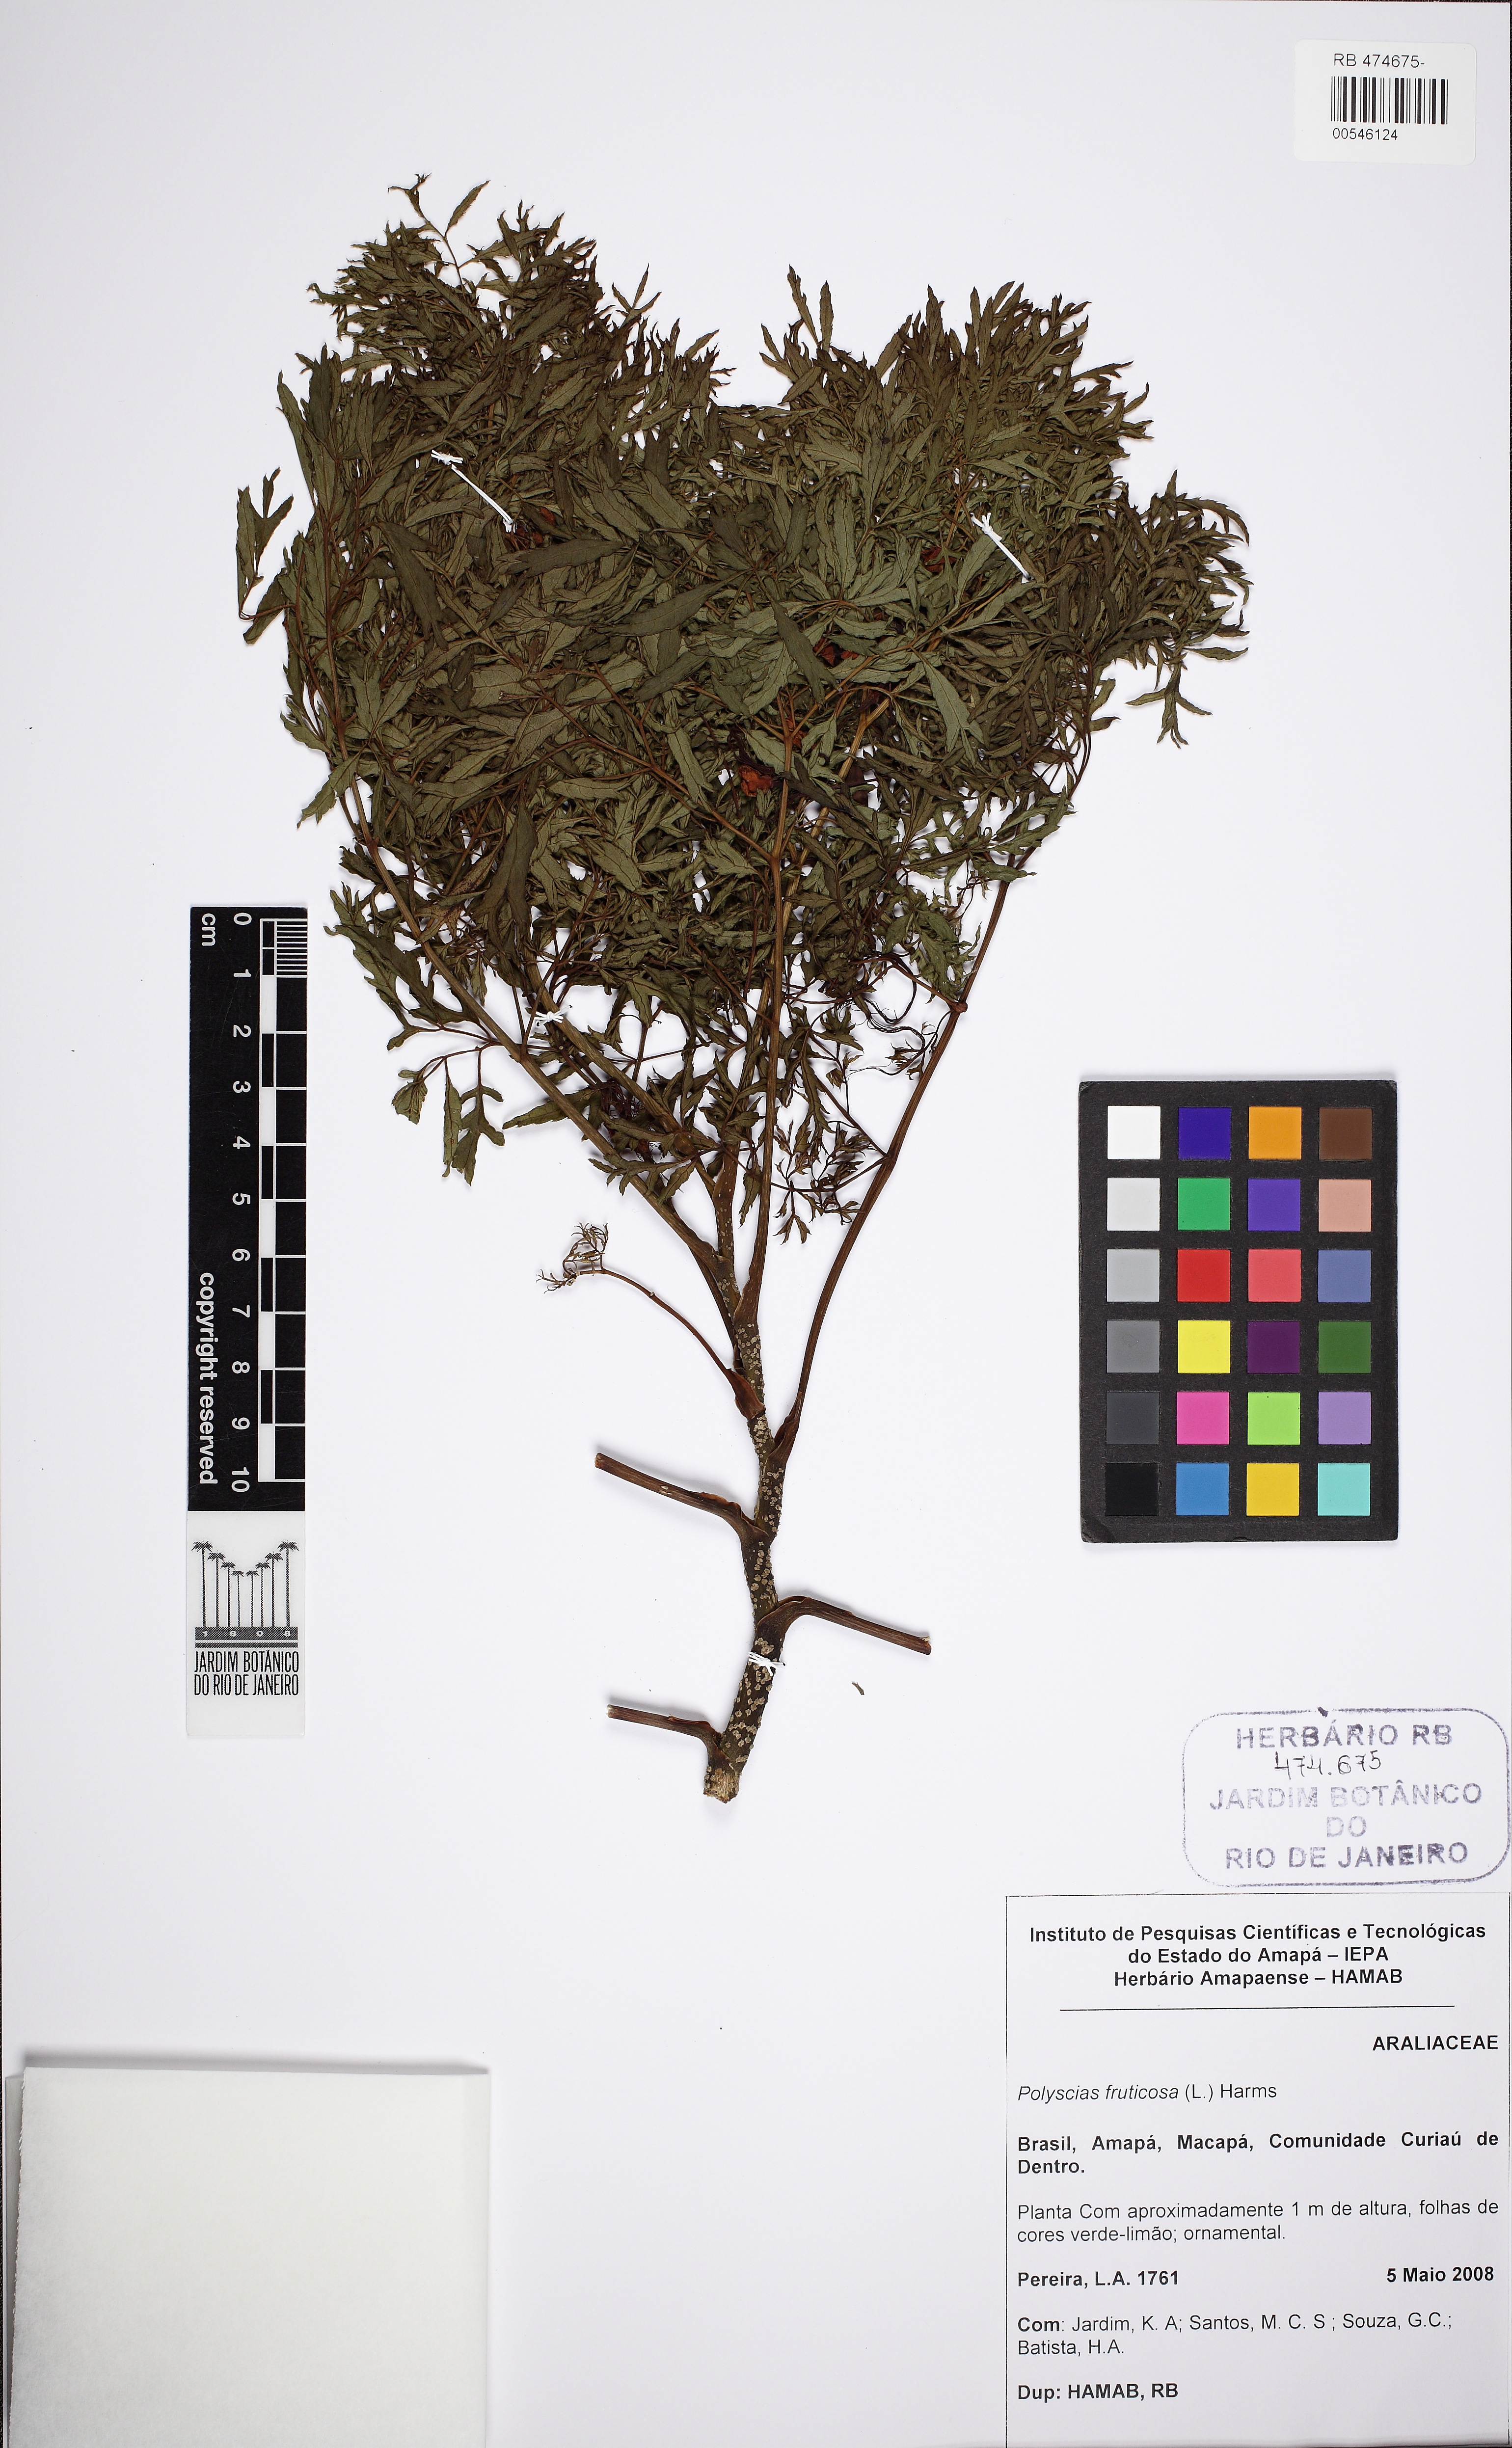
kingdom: Plantae
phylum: Tracheophyta
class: Magnoliopsida
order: Apiales
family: Araliaceae
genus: Polyscias
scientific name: Polyscias fruticosa
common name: Teatree
